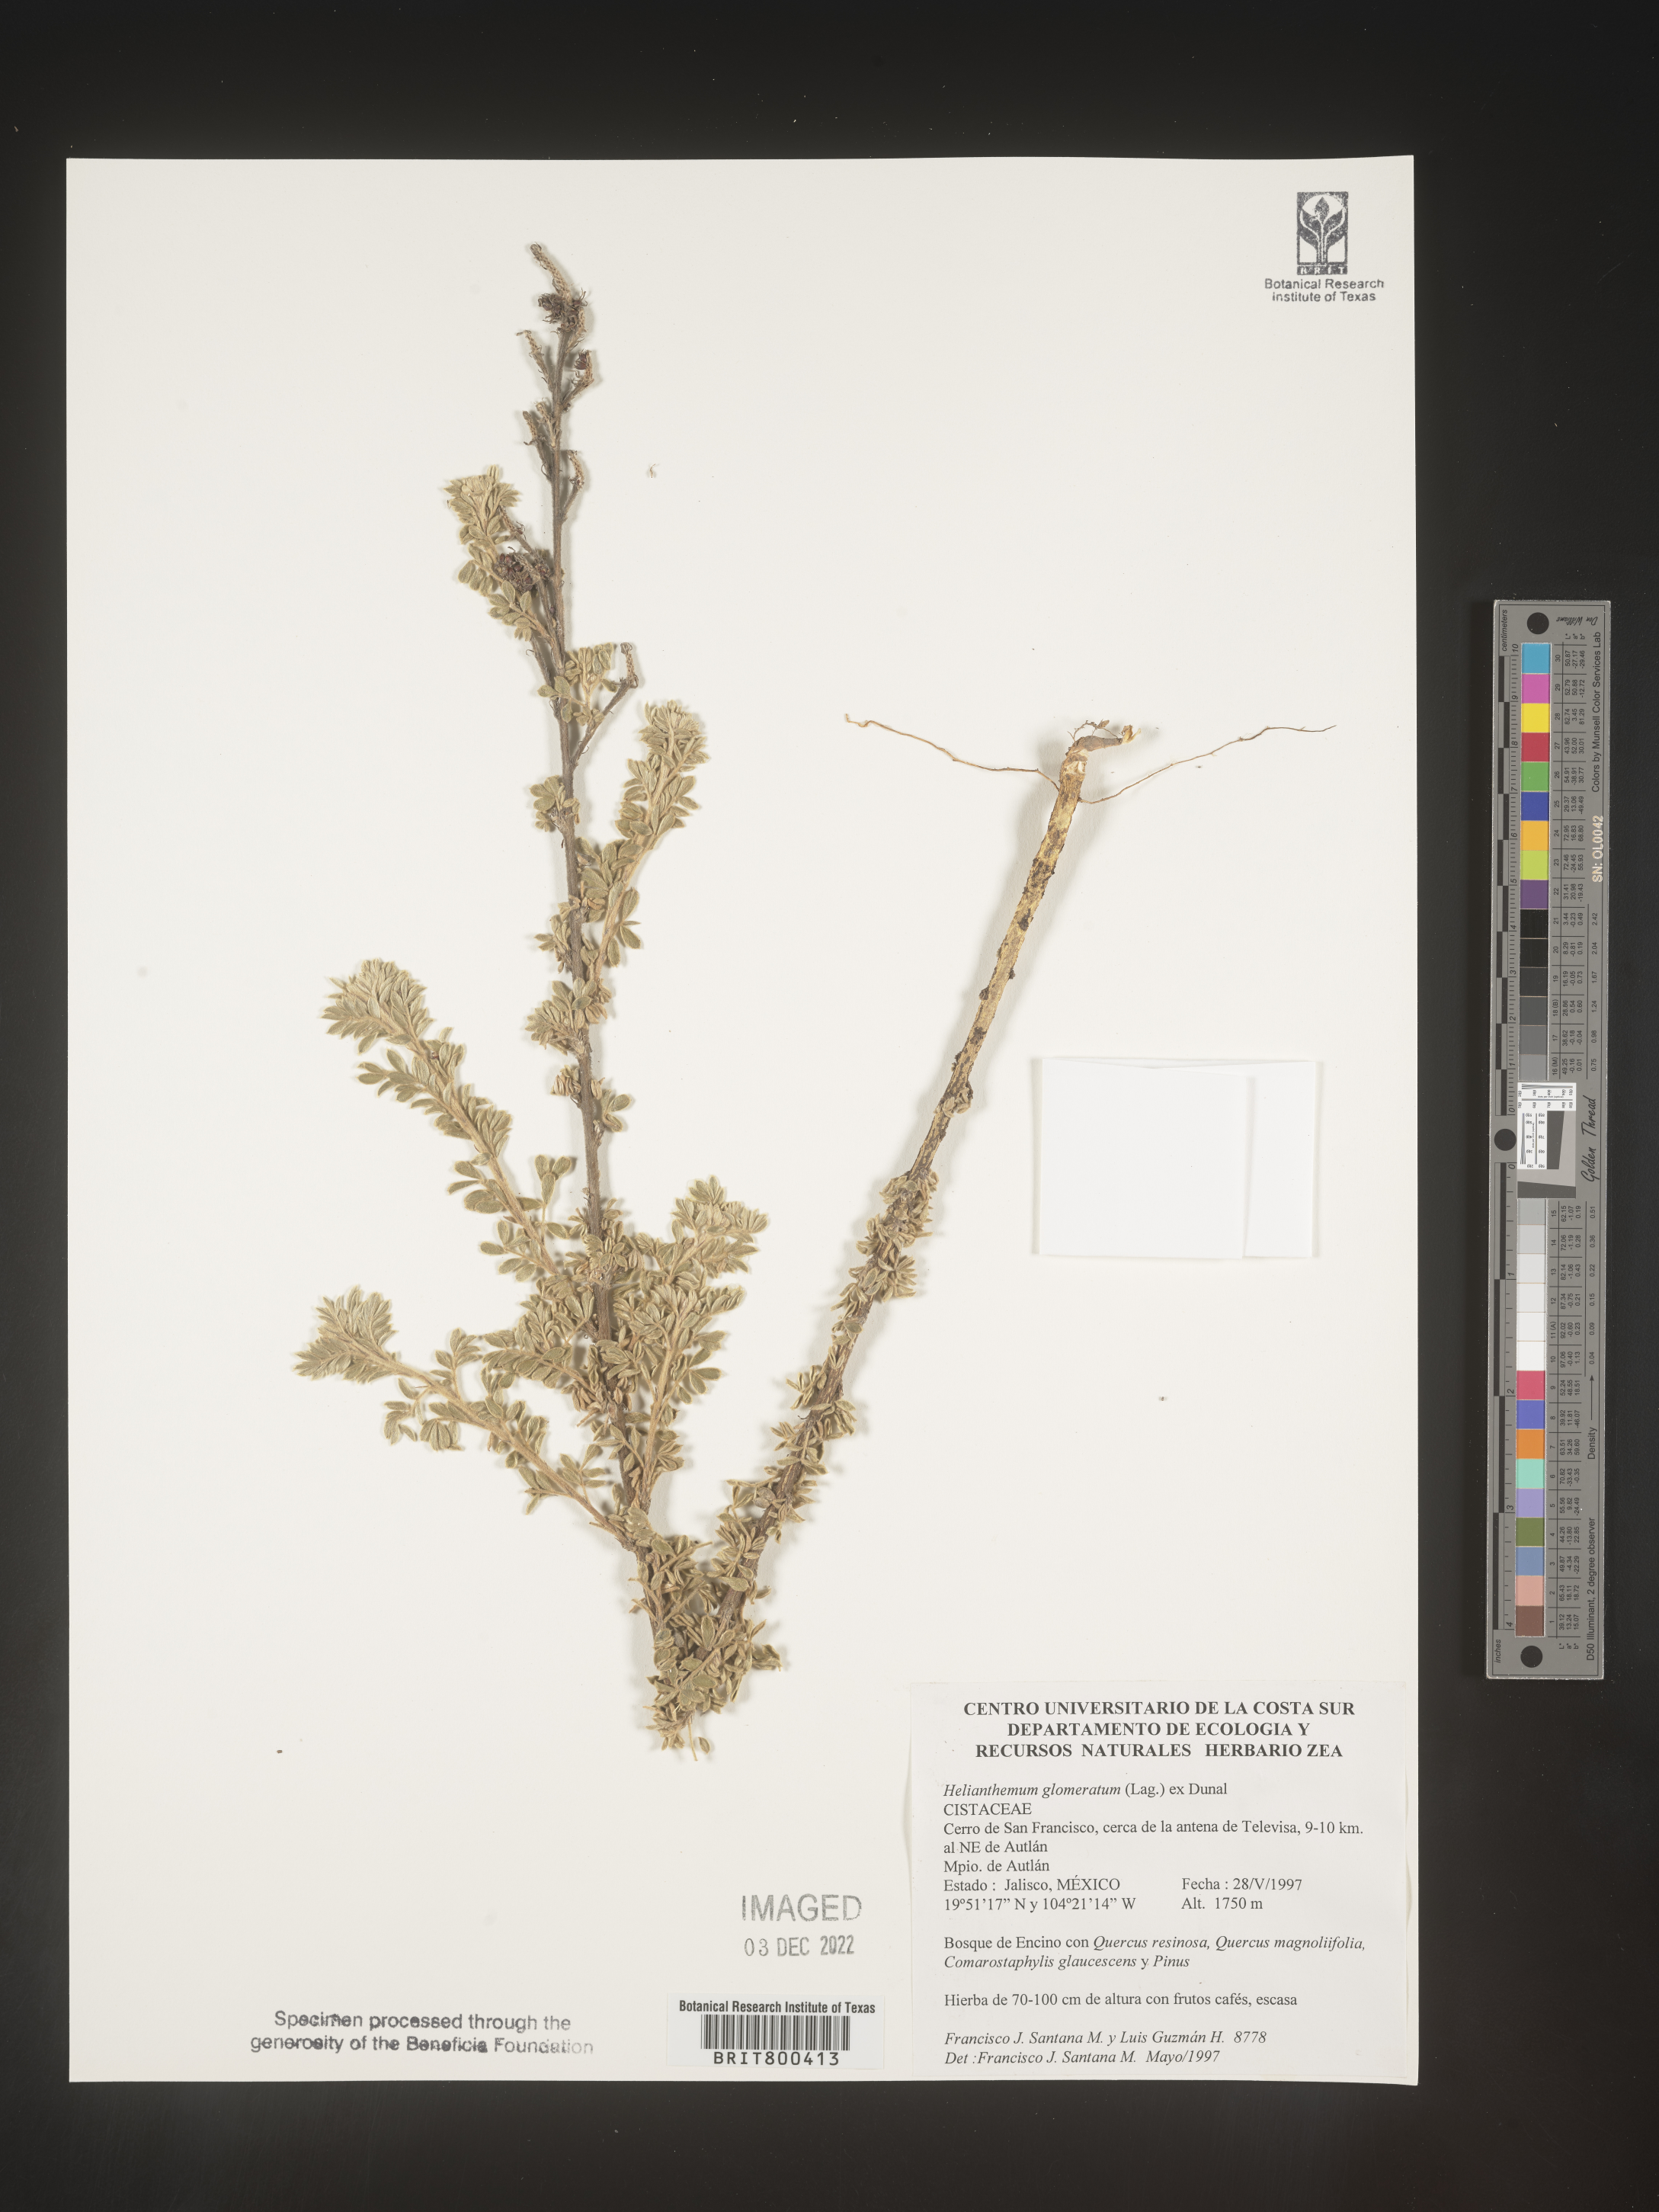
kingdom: Plantae
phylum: Tracheophyta
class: Magnoliopsida
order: Malvales
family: Cistaceae
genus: Helianthemum
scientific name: Helianthemum
